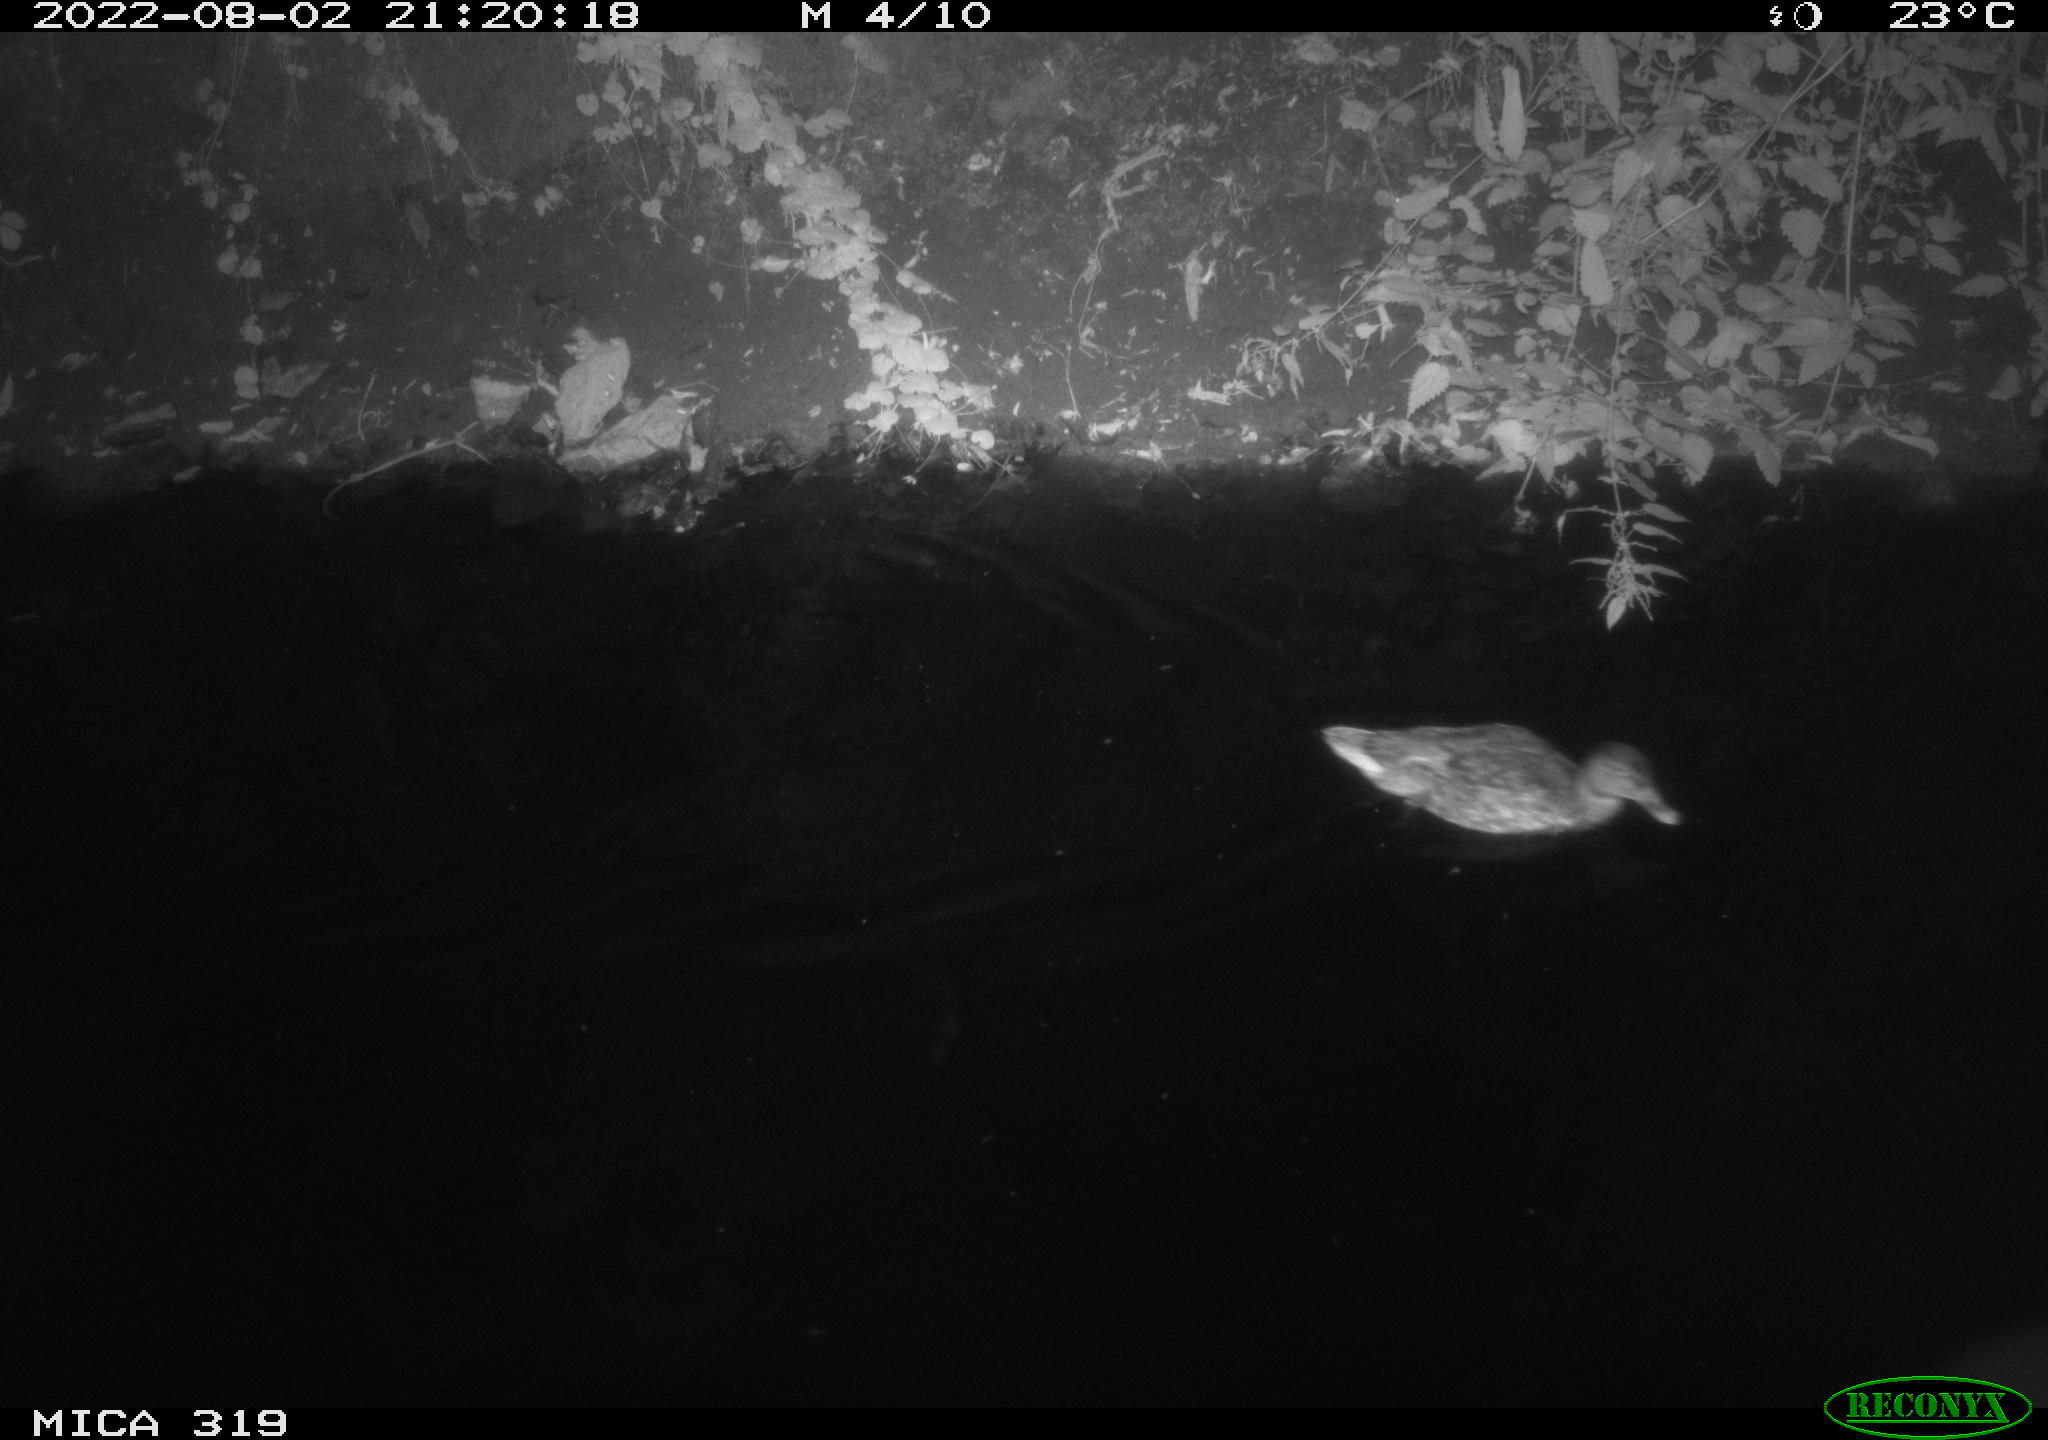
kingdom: Animalia
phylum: Chordata
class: Aves
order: Anseriformes
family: Anatidae
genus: Anas
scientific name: Anas
